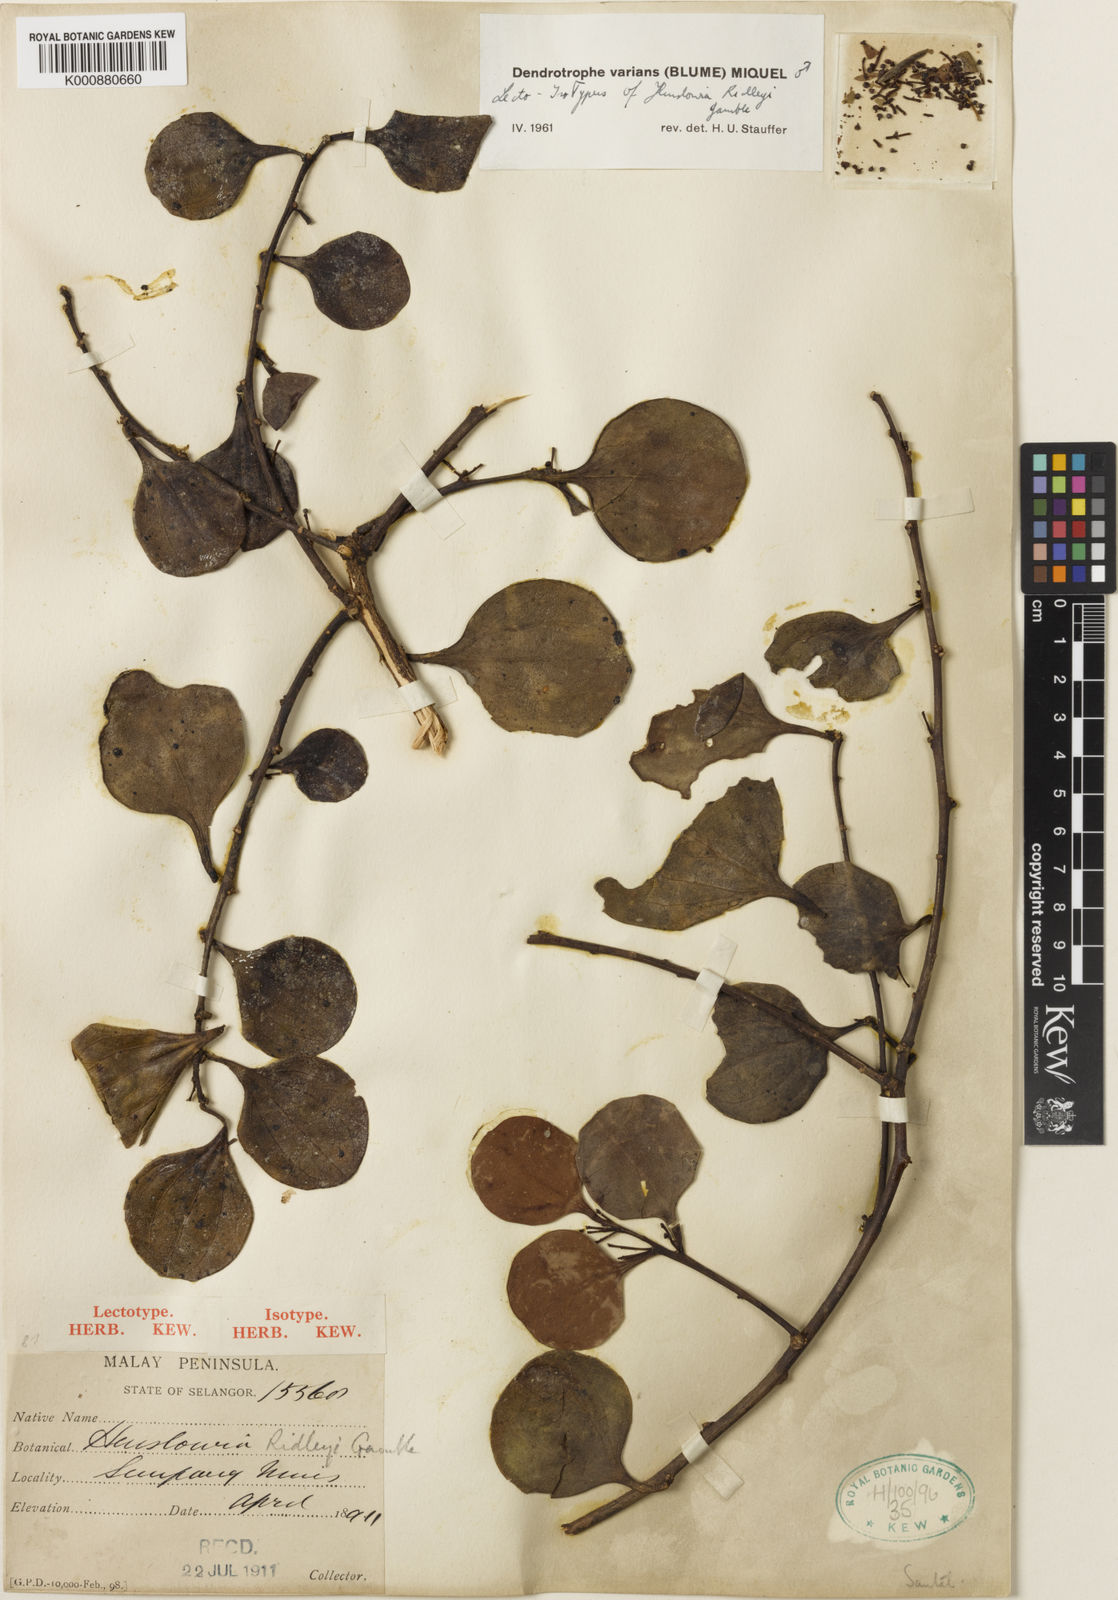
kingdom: Plantae
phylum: Tracheophyta
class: Magnoliopsida
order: Santalales
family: Amphorogynaceae
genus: Dendrotrophe
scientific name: Dendrotrophe varians
